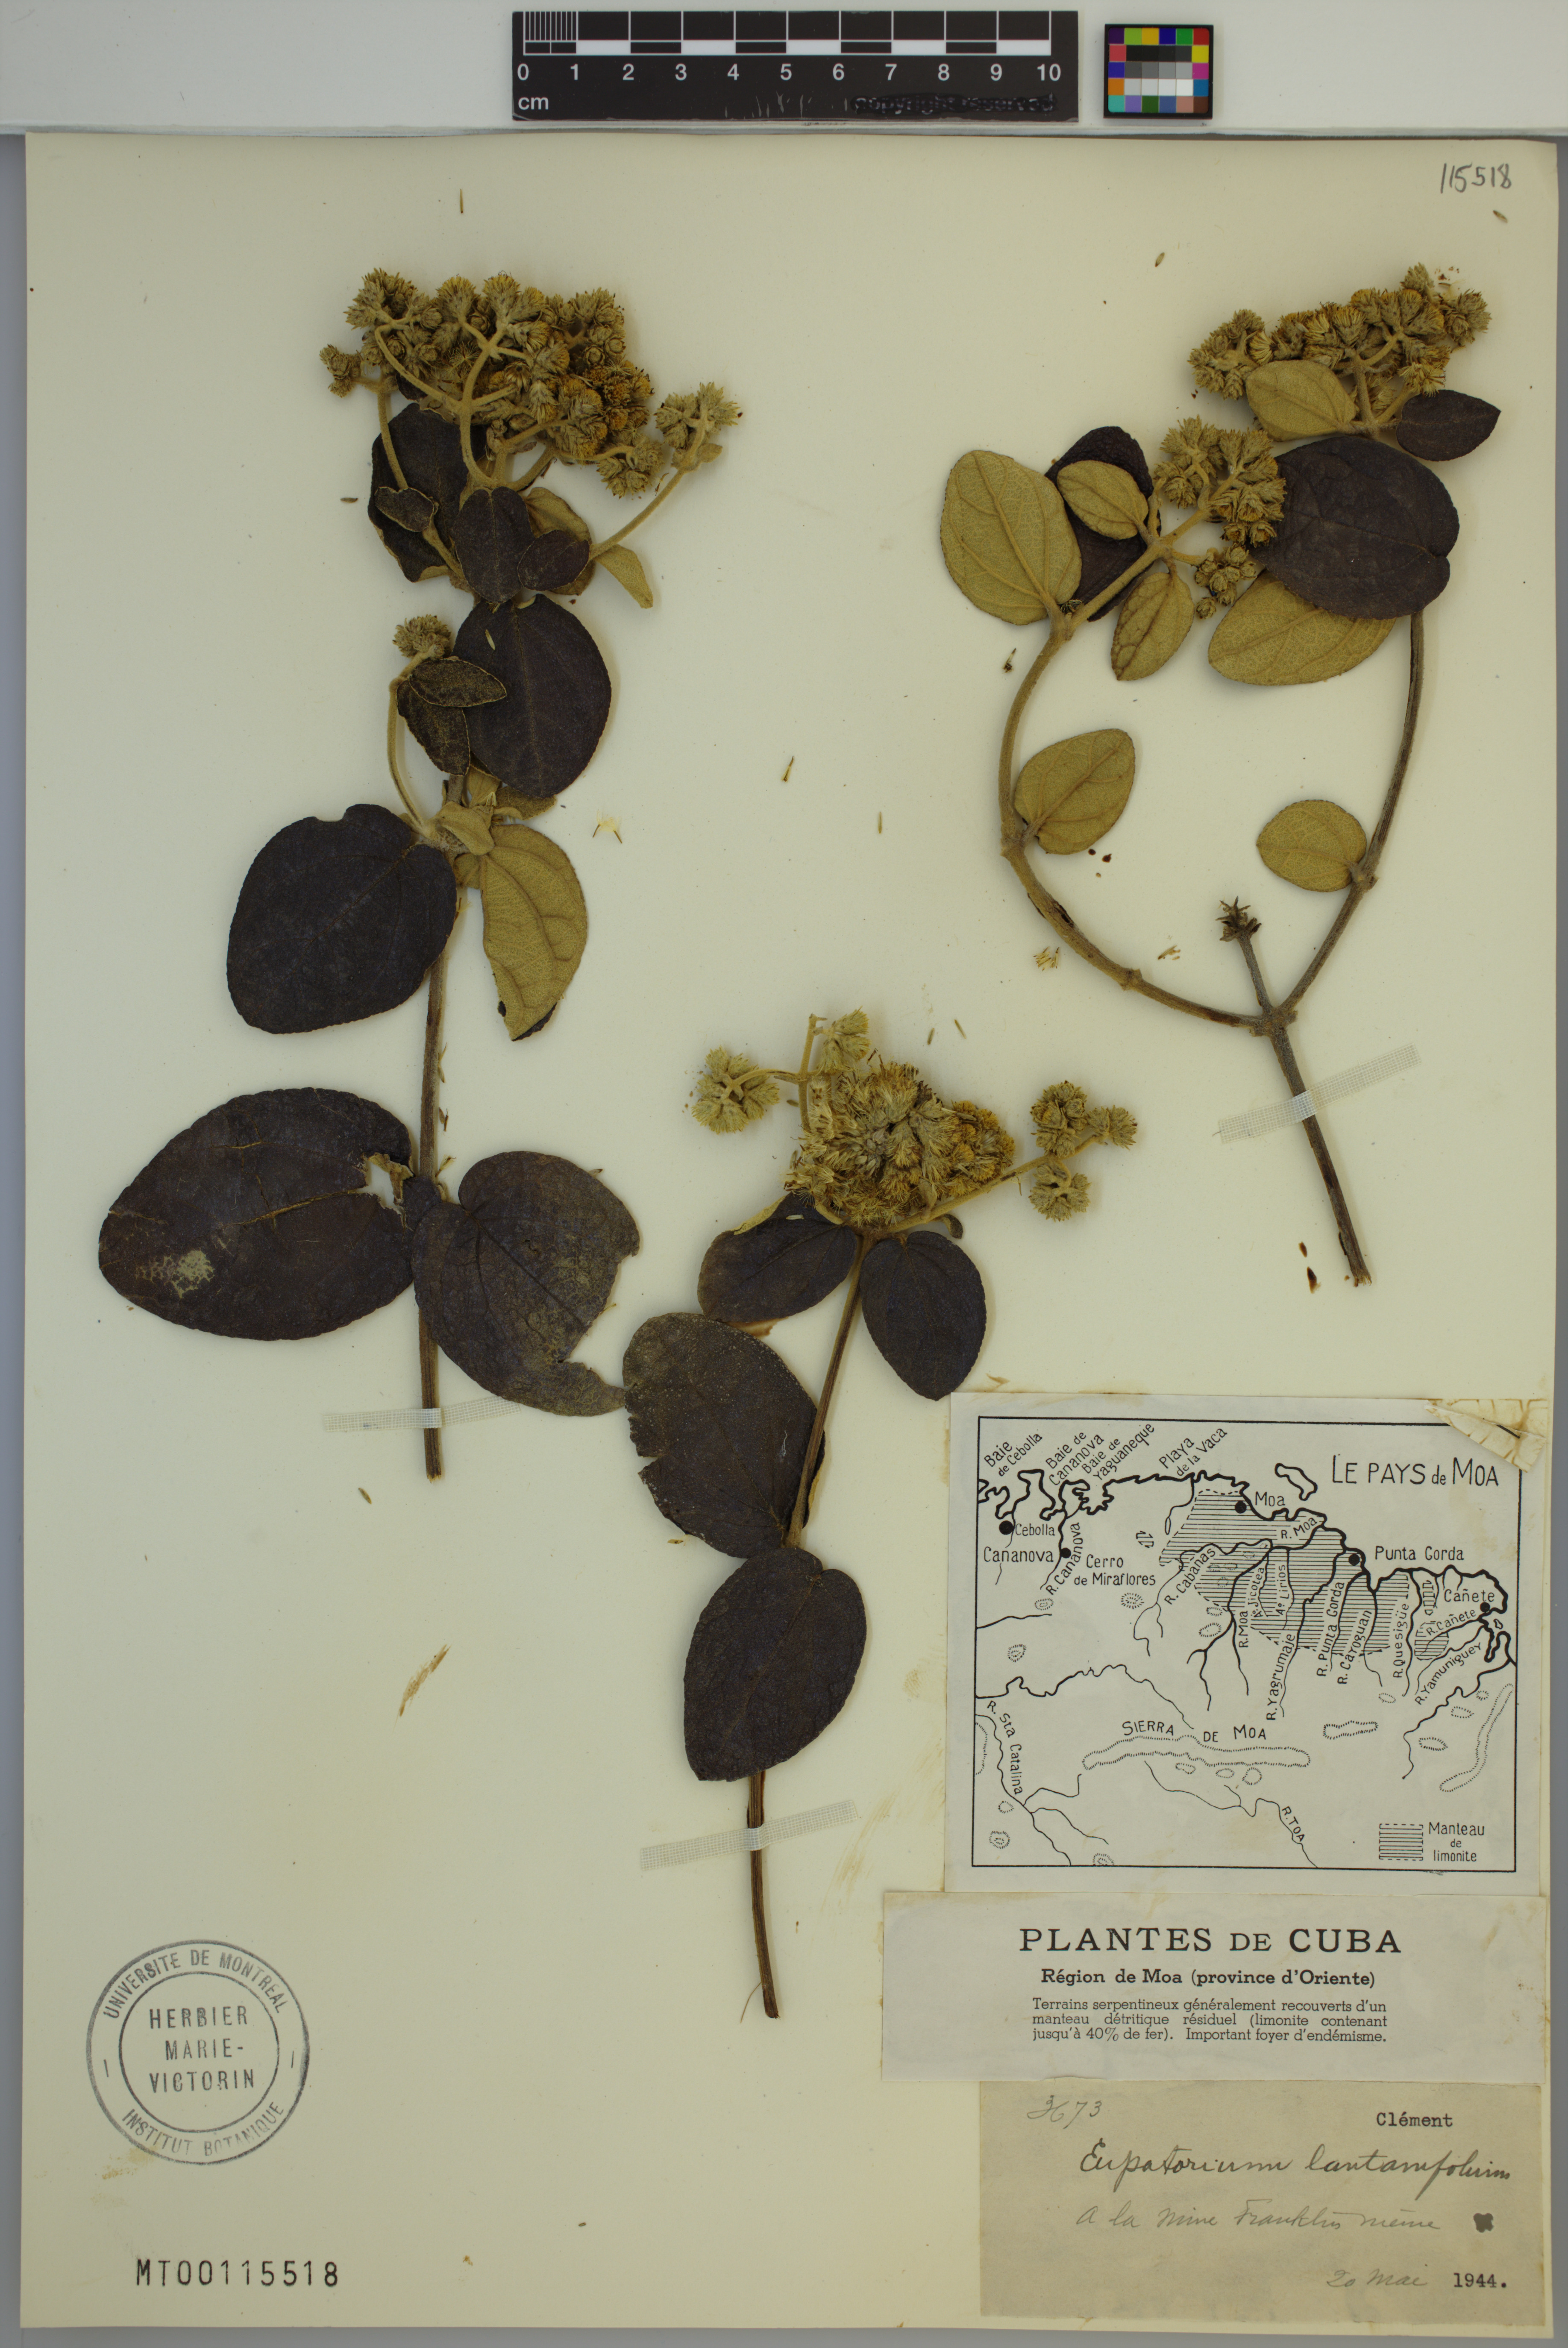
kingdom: Plantae
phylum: Tracheophyta
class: Magnoliopsida
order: Asterales
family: Asteraceae
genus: Grisebachianthus
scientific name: Grisebachianthus lantanifolius
